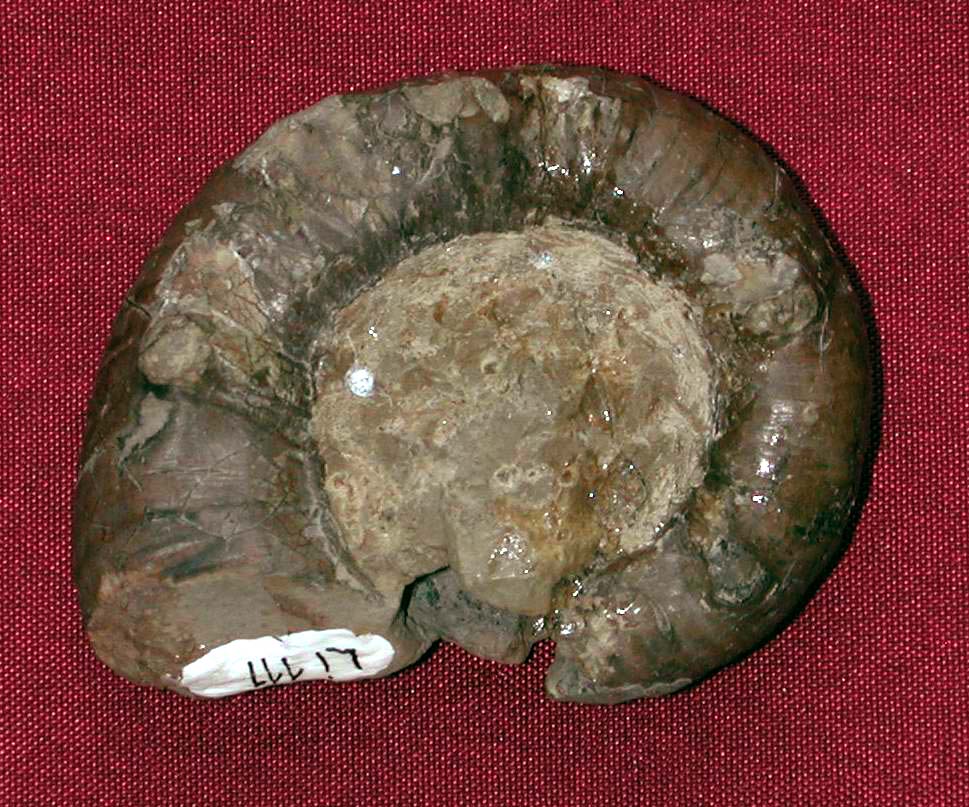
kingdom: Animalia
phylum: Mollusca
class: Cephalopoda
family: Eoderoceratidae
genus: Hyperderoceras
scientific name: Hyperderoceras
